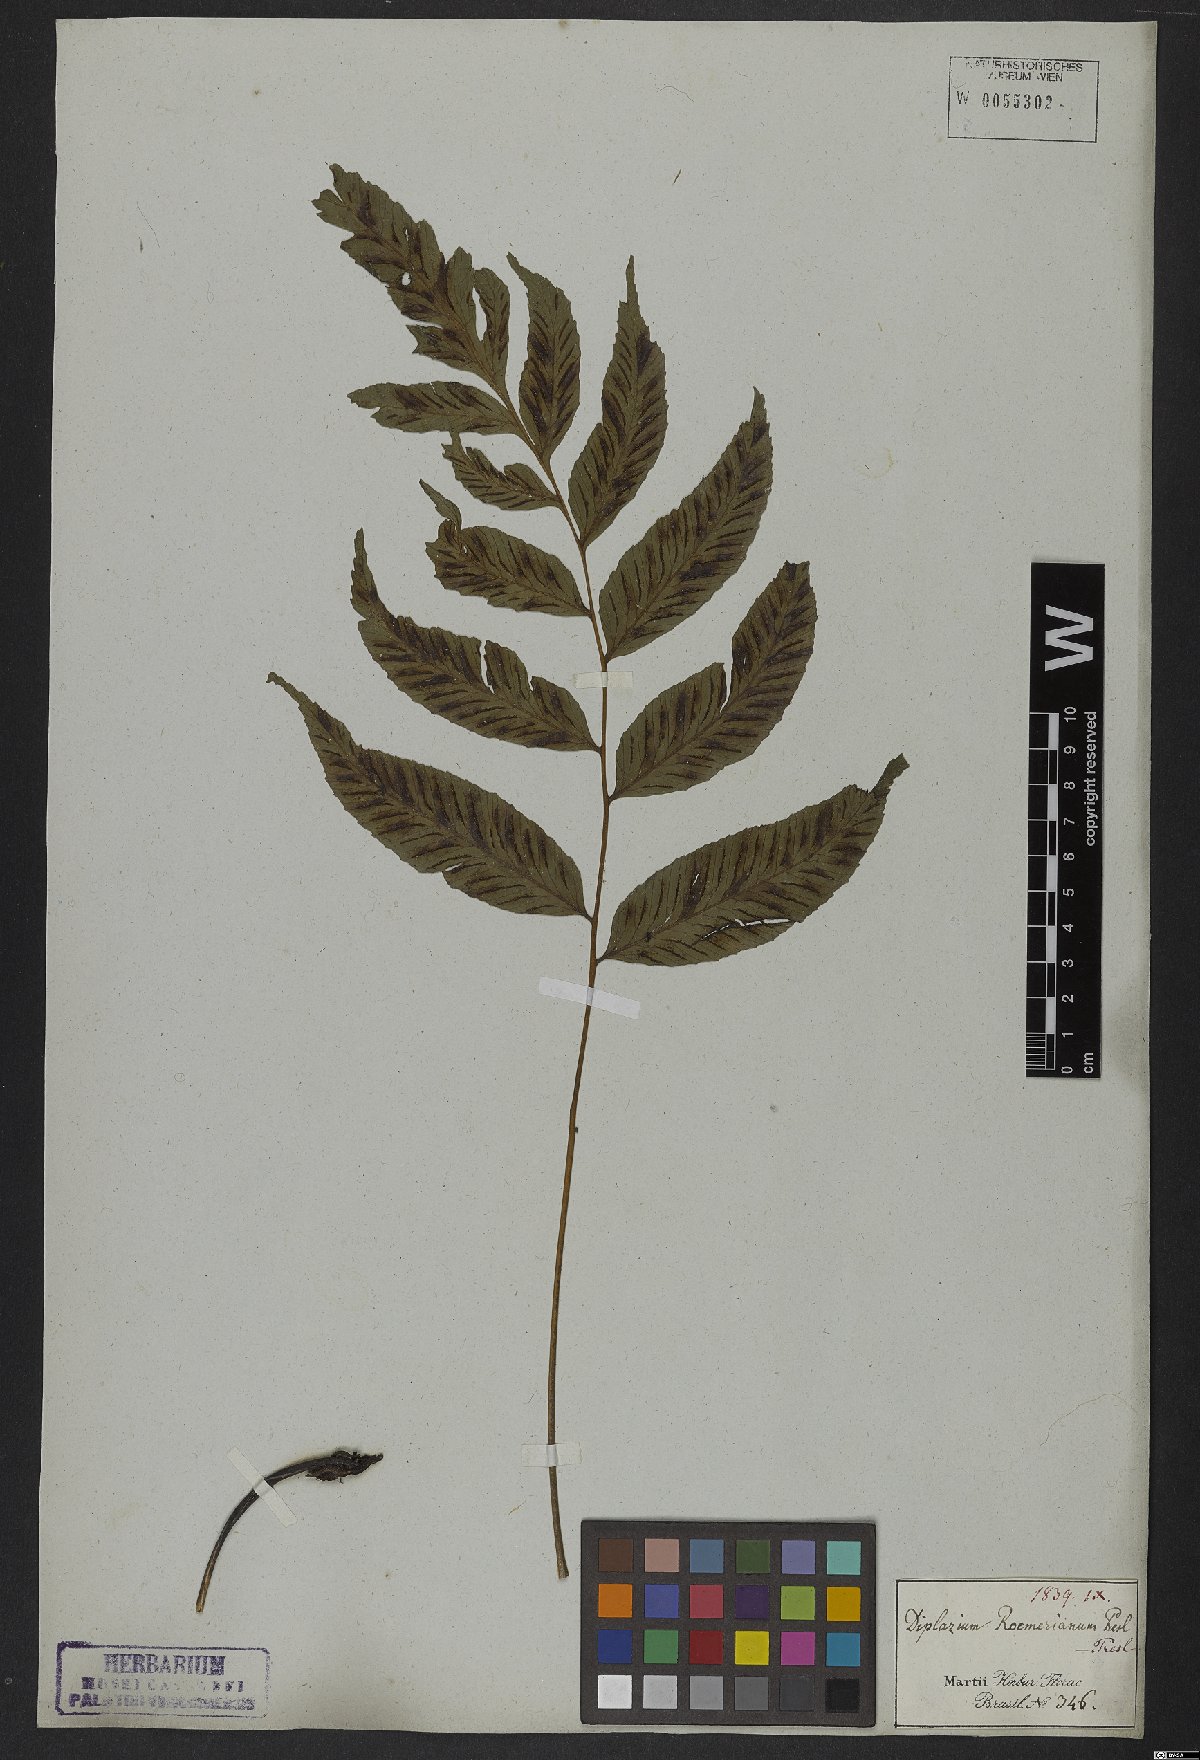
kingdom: Plantae
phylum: Tracheophyta
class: Polypodiopsida
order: Polypodiales
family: Athyriaceae
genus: Diplazium
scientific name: Diplazium cristatum
